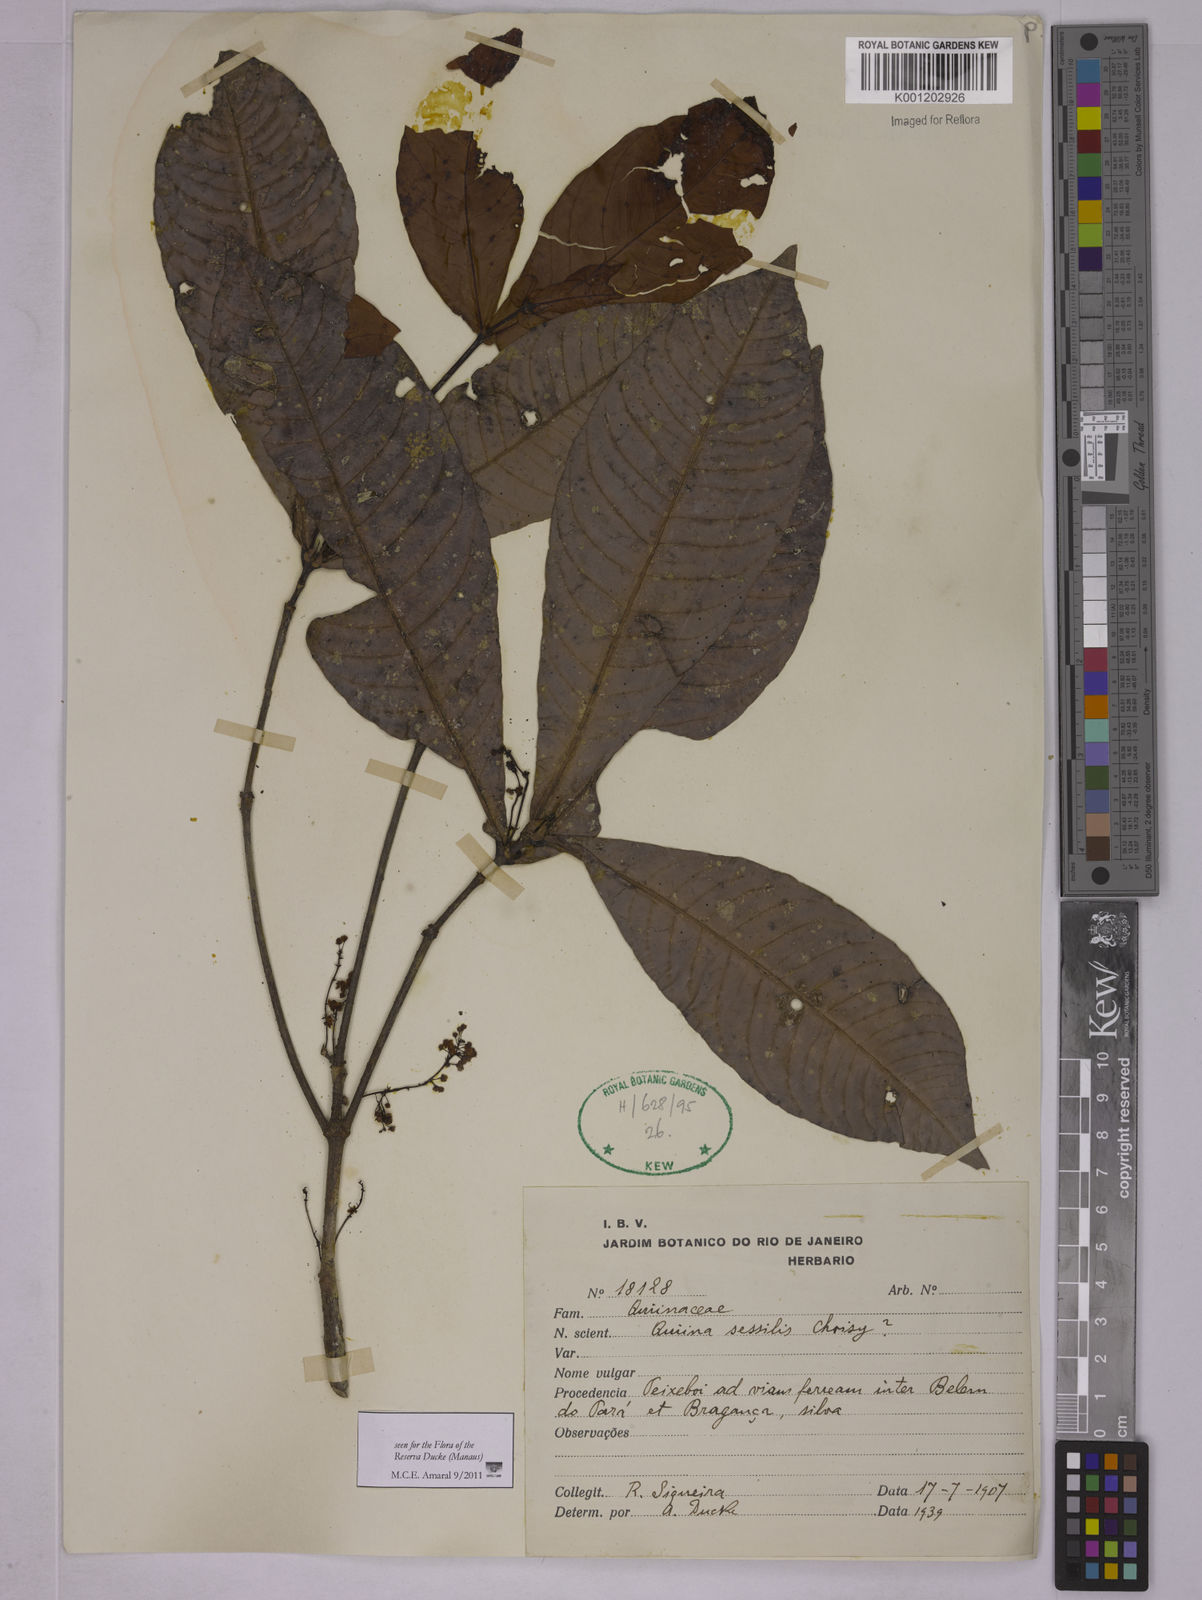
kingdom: Plantae
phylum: Tracheophyta
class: Magnoliopsida
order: Malpighiales
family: Quiinaceae
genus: Quiina
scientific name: Quiina sessilis
